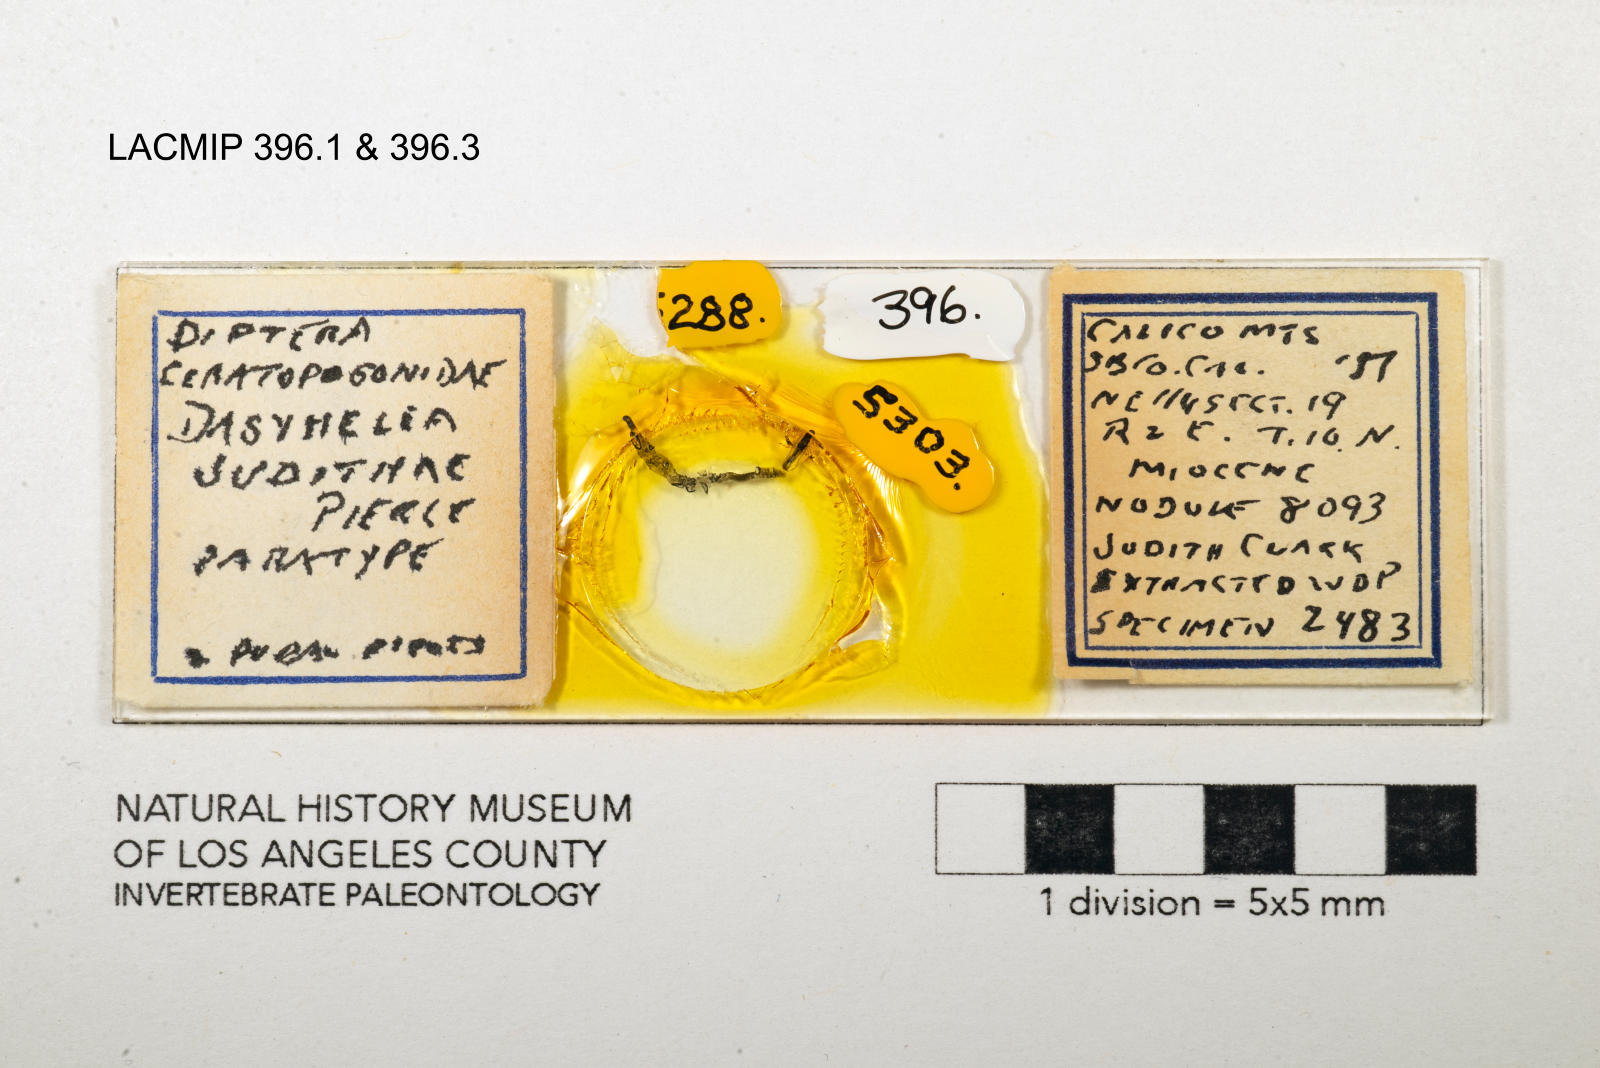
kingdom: Animalia
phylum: Arthropoda
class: Insecta
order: Diptera
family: Ceratopogonidae
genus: Dasyhelea
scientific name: Dasyhelea judithae
